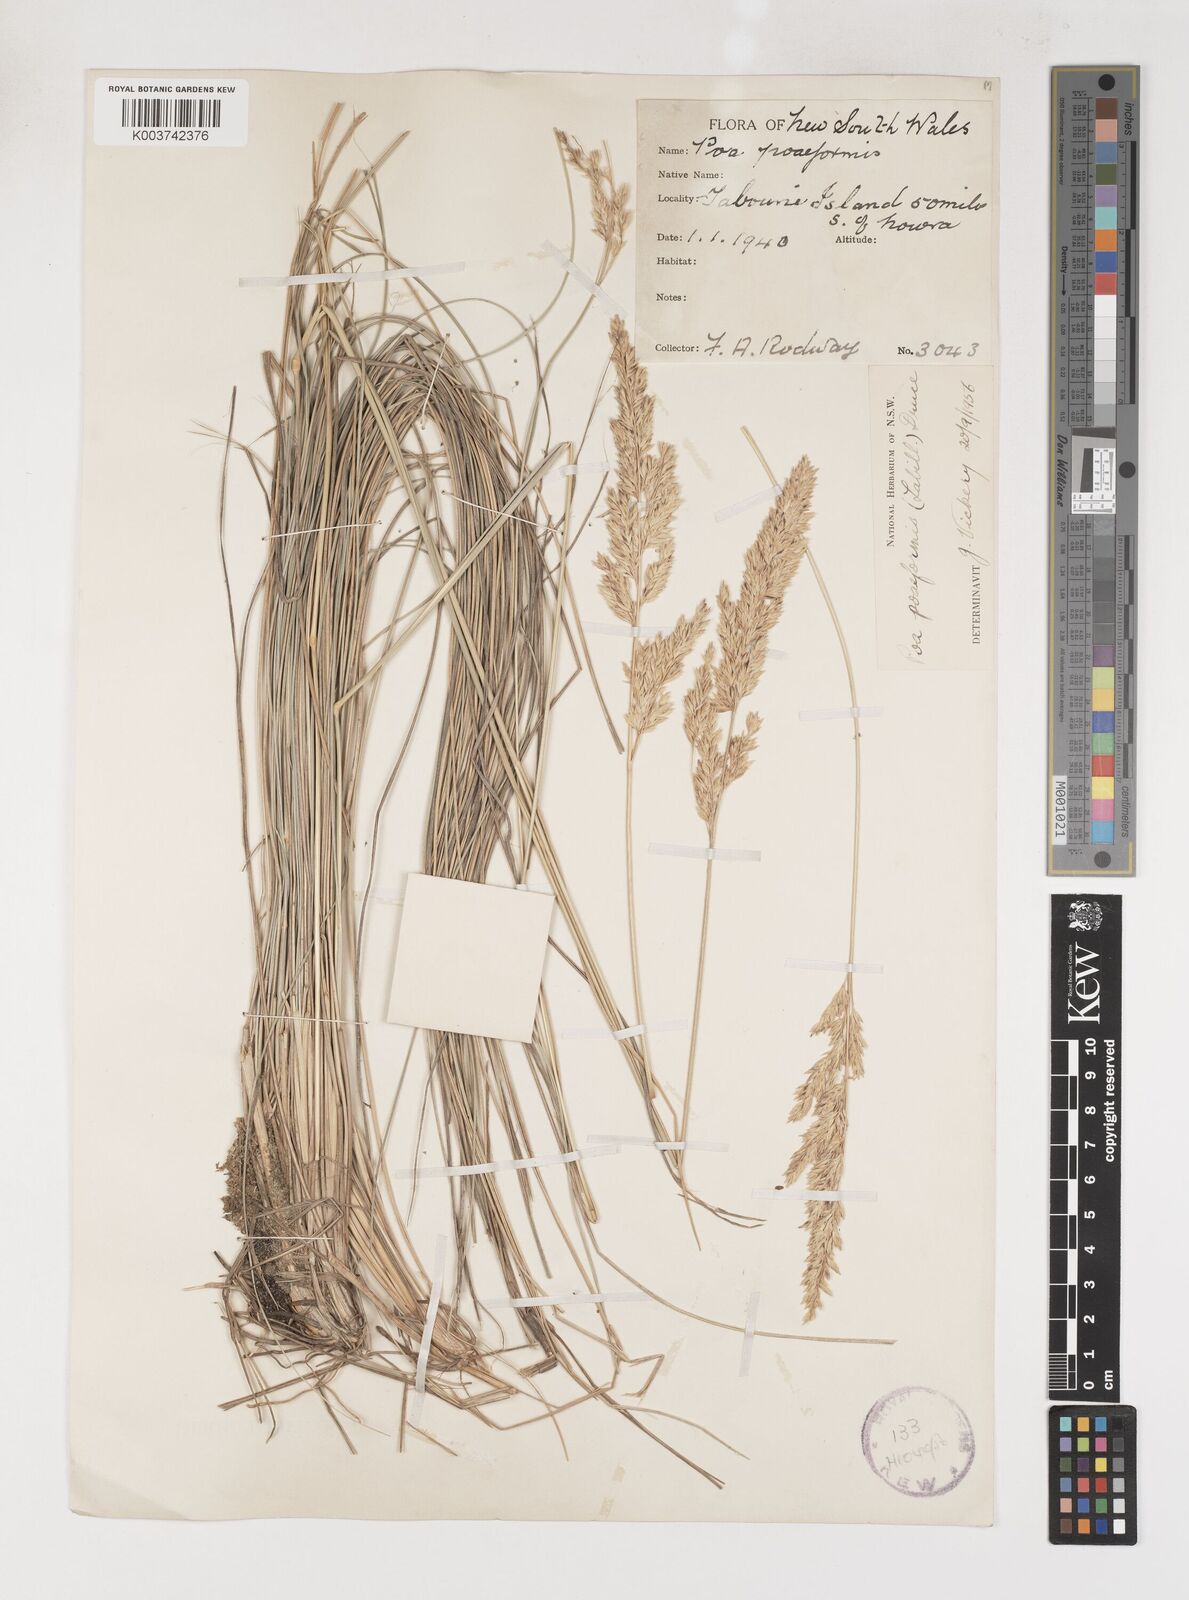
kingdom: Plantae
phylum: Tracheophyta
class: Liliopsida
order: Poales
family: Poaceae
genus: Poa
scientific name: Poa poiformis
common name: Tussock poa
